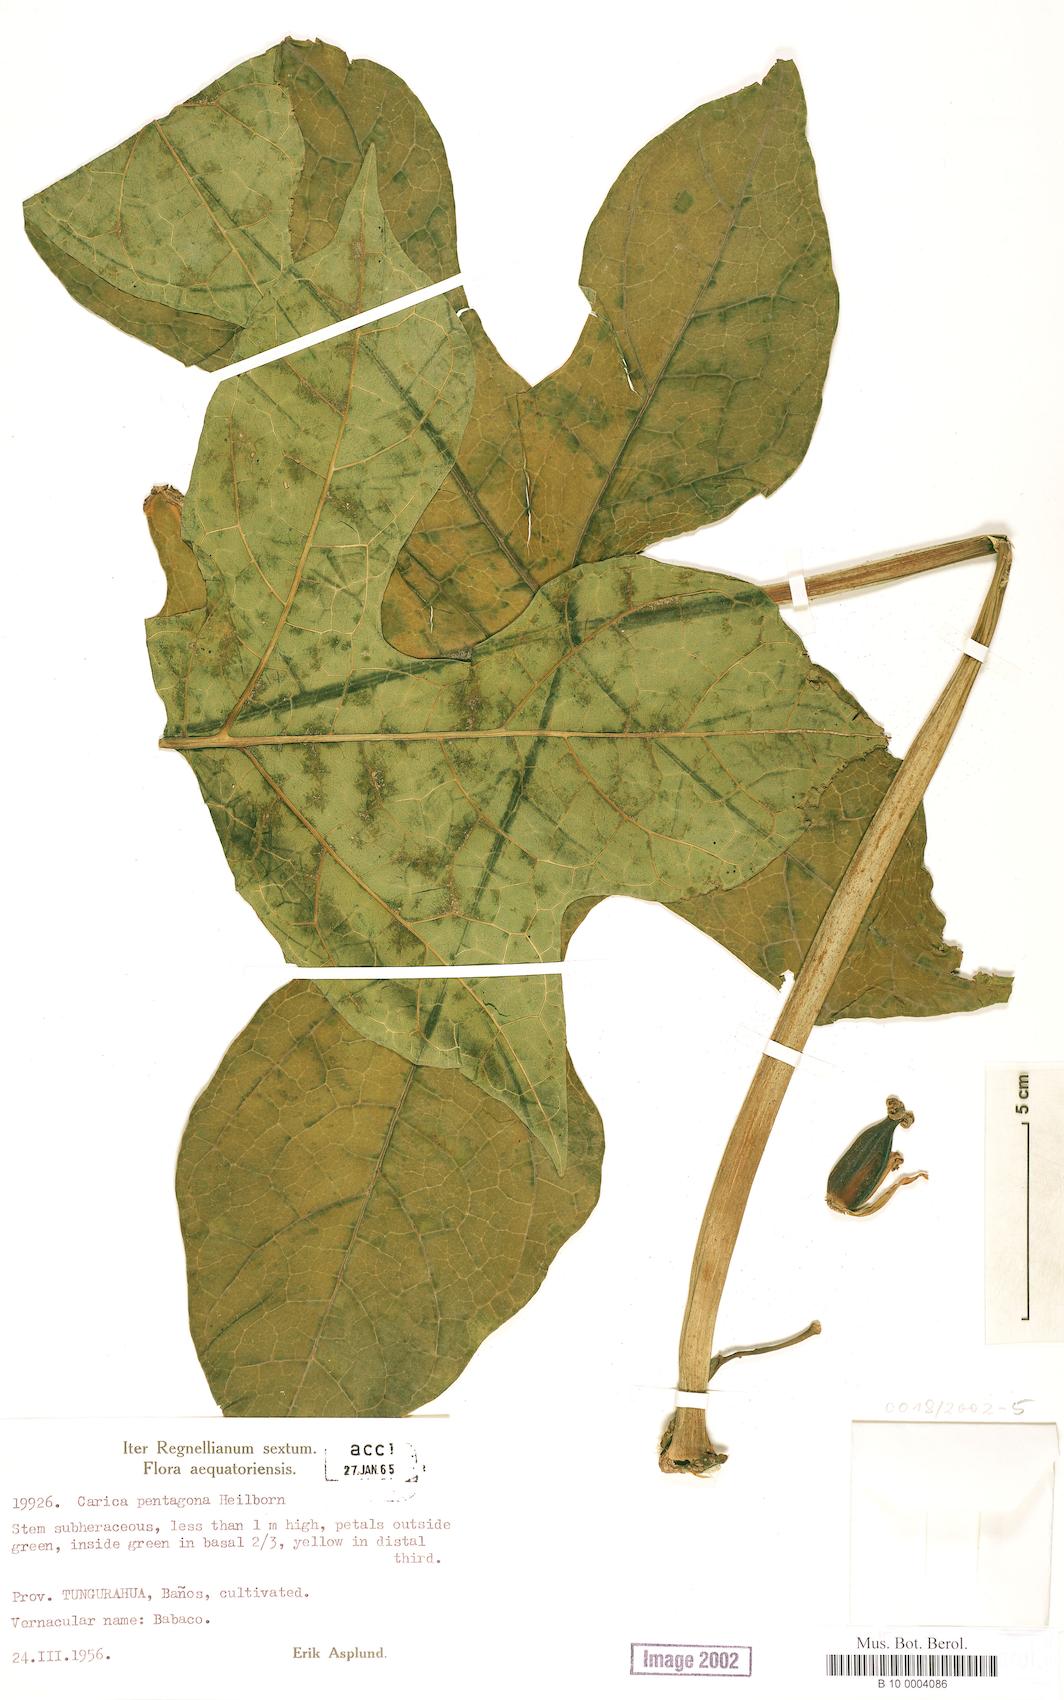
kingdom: Plantae
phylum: Tracheophyta
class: Magnoliopsida
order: Brassicales
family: Caricaceae
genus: Vasconcellea
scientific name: Vasconcellea pentagona
